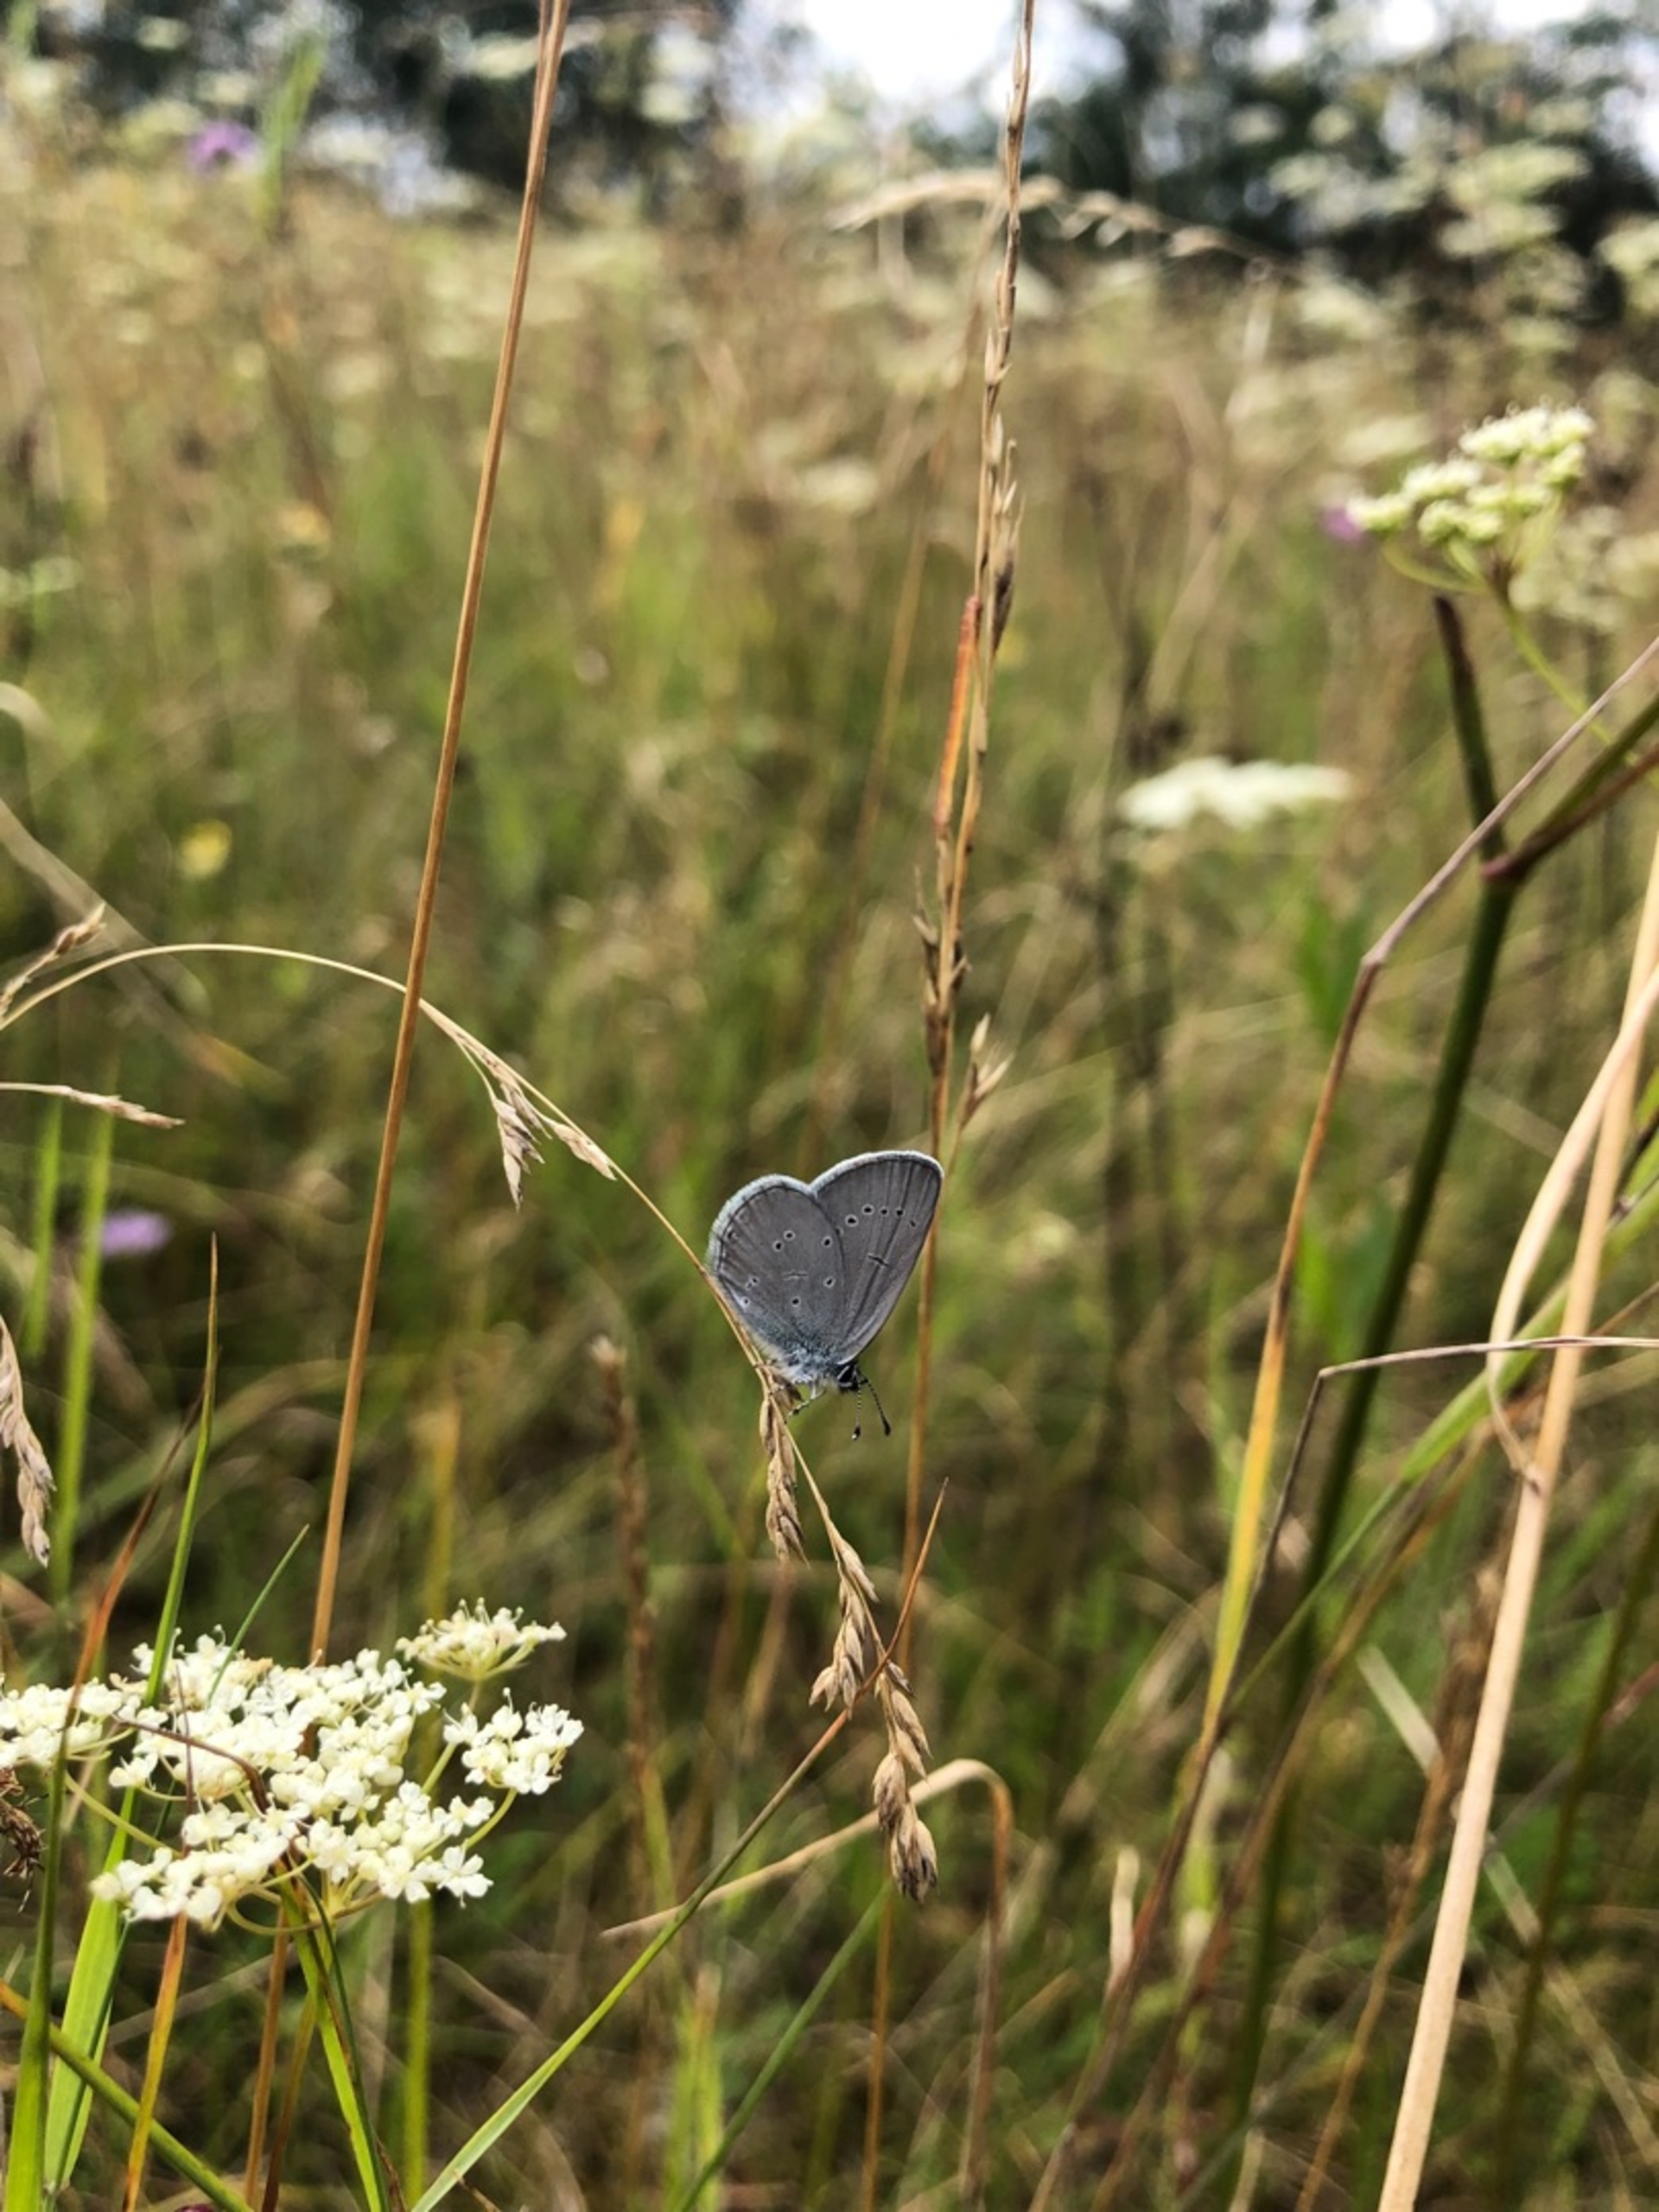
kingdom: Animalia
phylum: Arthropoda
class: Insecta
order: Lepidoptera
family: Lycaenidae
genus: Cupido
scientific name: Cupido minimus
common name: Dværgblåfugl
